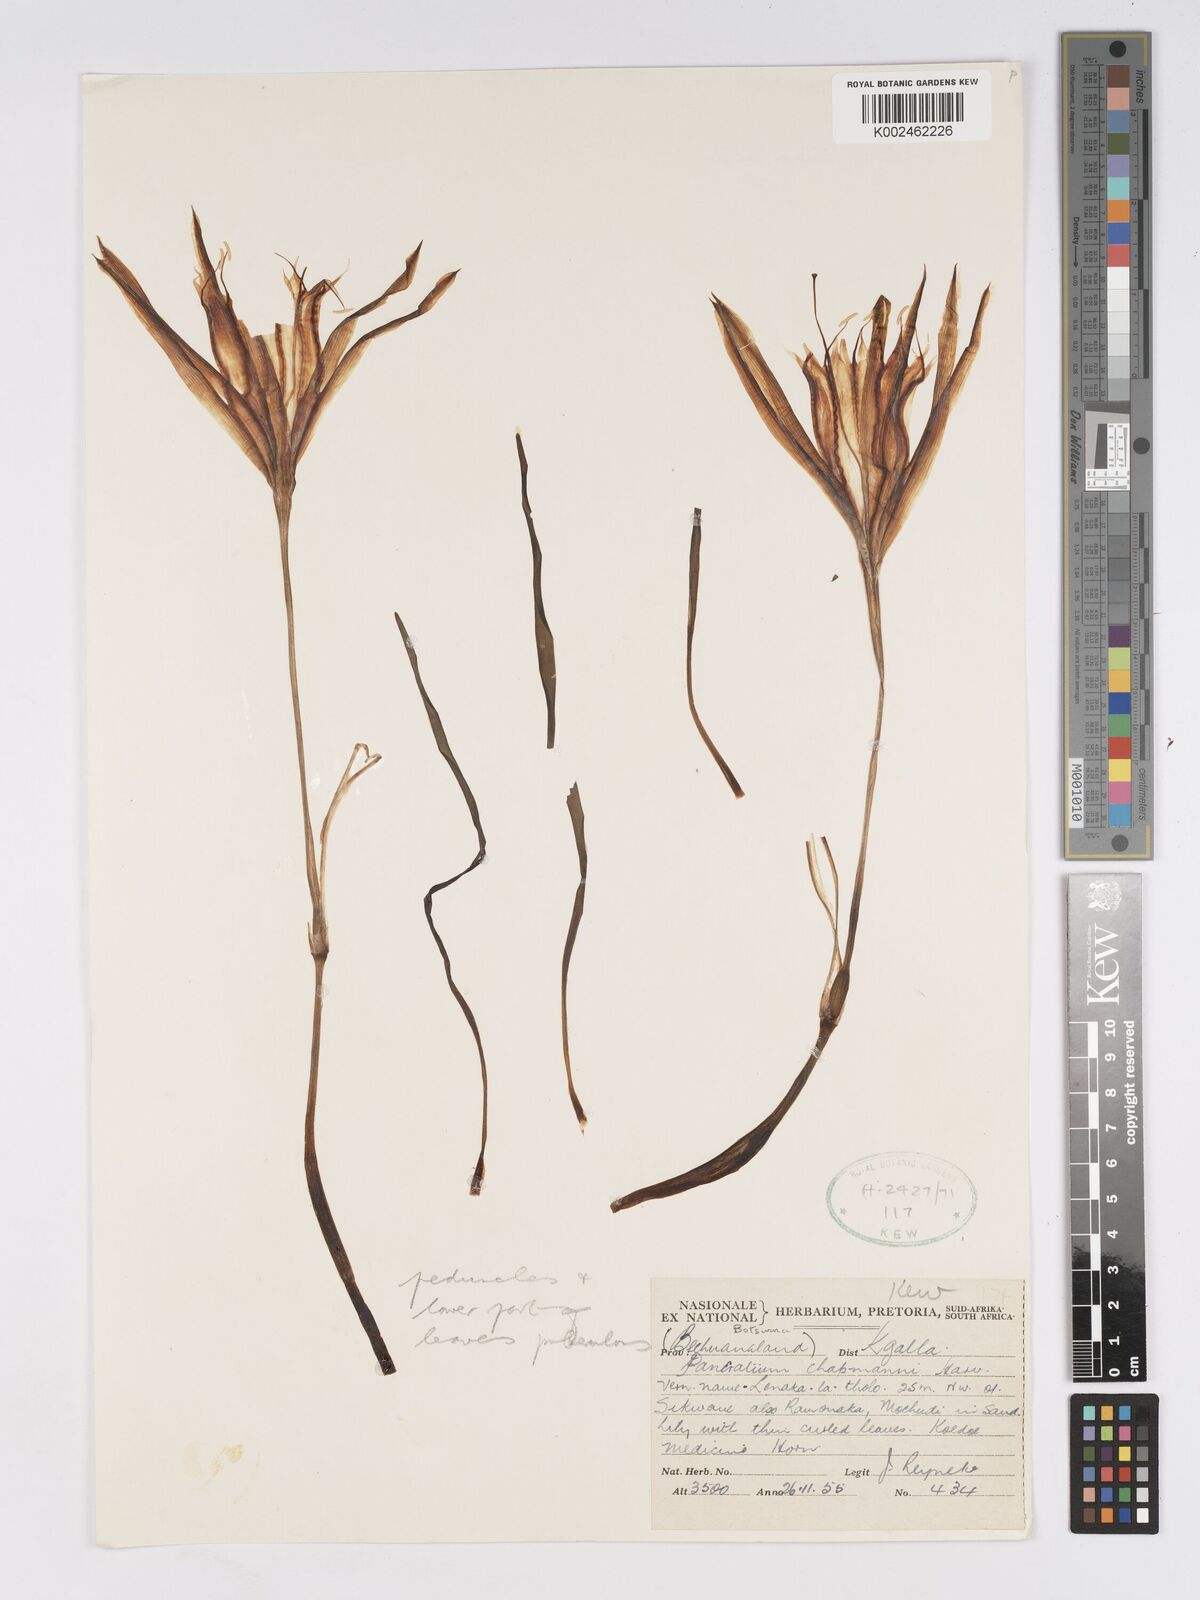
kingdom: Plantae
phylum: Tracheophyta
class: Liliopsida
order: Asparagales
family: Amaryllidaceae
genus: Pancratium
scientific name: Pancratium tenuifolium
